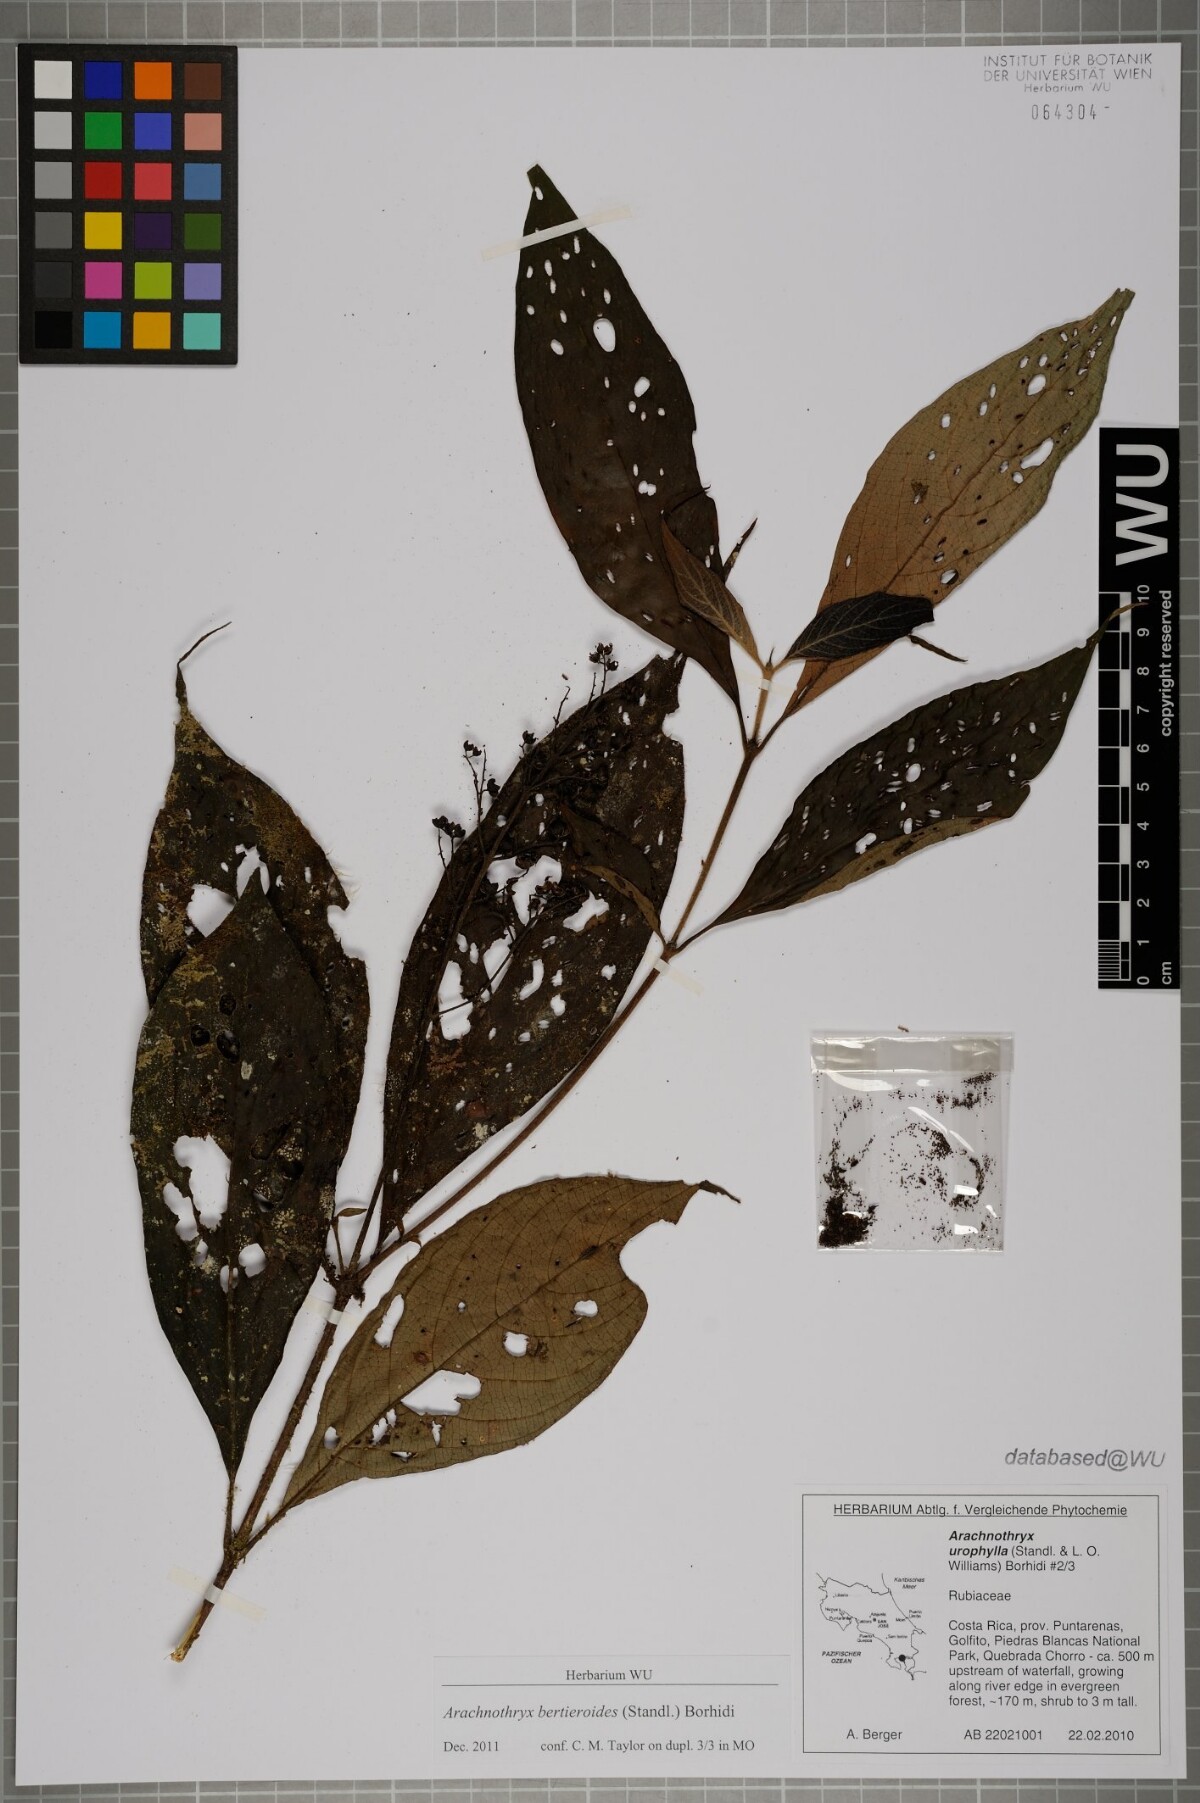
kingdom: Plantae
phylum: Tracheophyta
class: Magnoliopsida
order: Gentianales
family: Rubiaceae
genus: Arachnothryx
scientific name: Arachnothryx bertieroides
